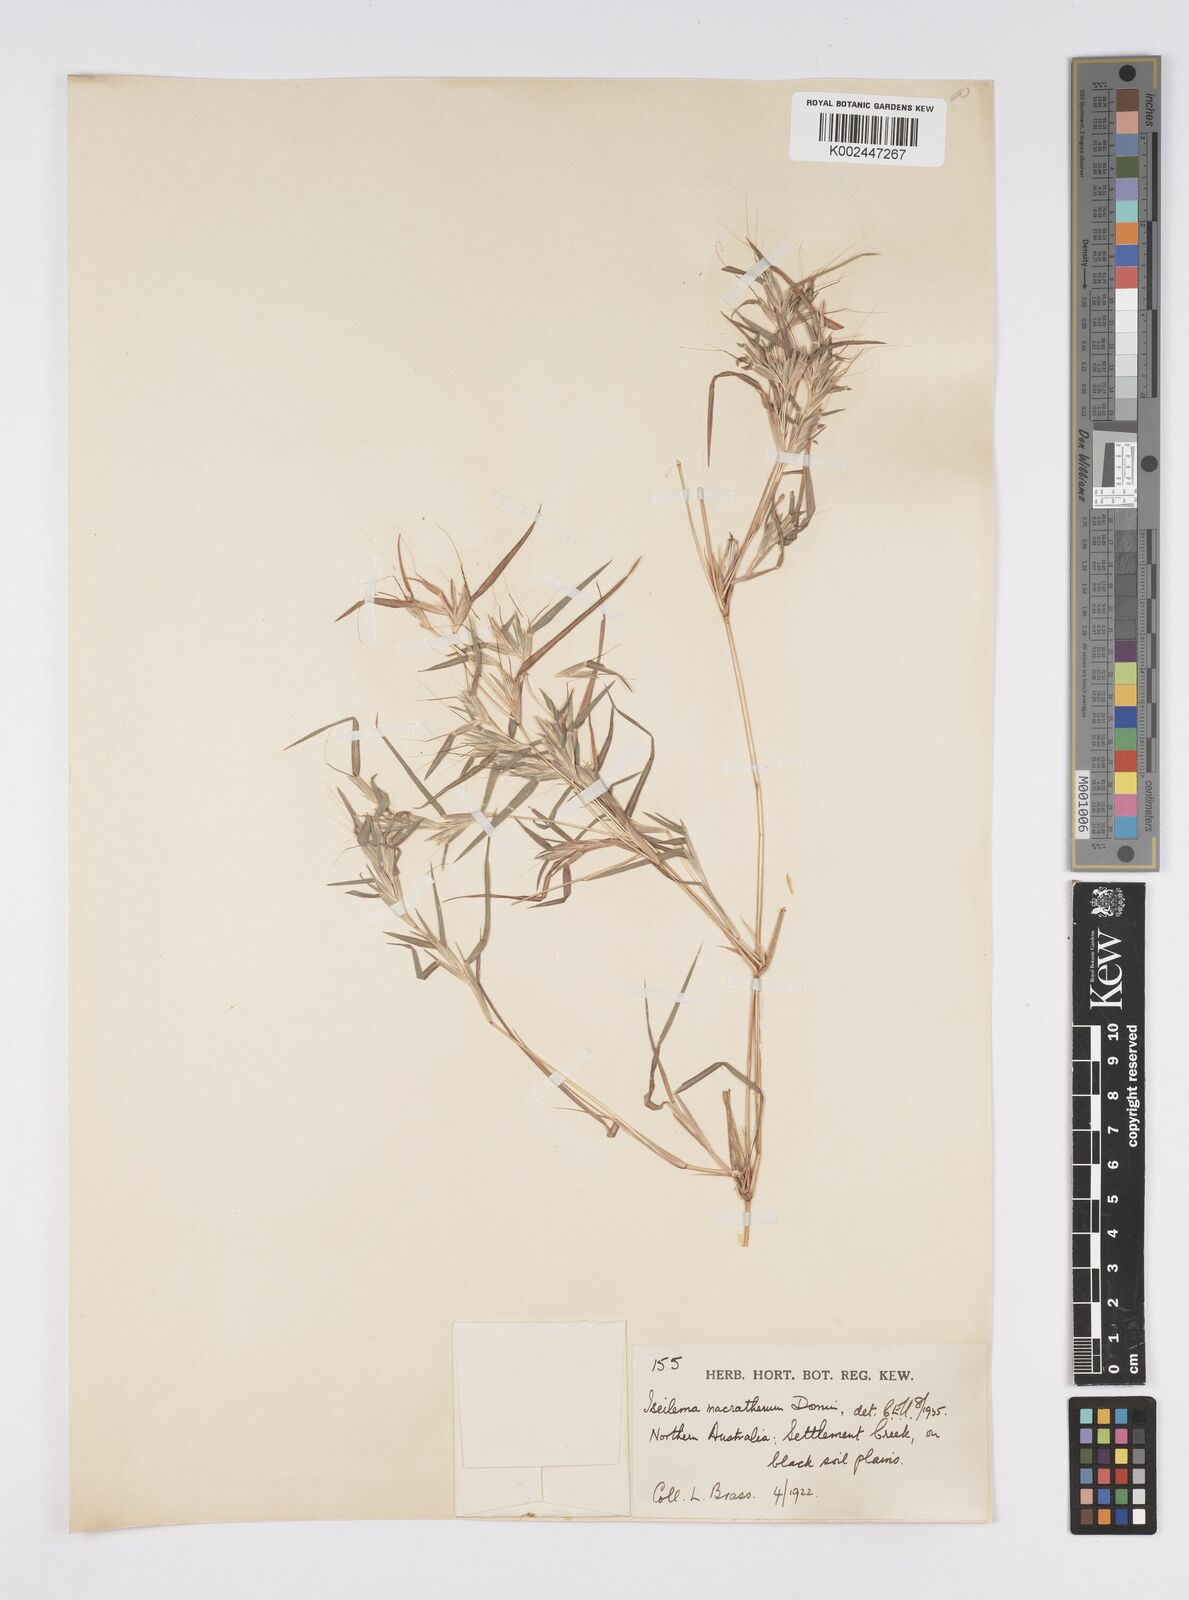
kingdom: Plantae
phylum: Tracheophyta
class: Liliopsida
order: Poales
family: Poaceae
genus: Iseilema
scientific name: Iseilema macratherum
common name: Bull flinders grass
